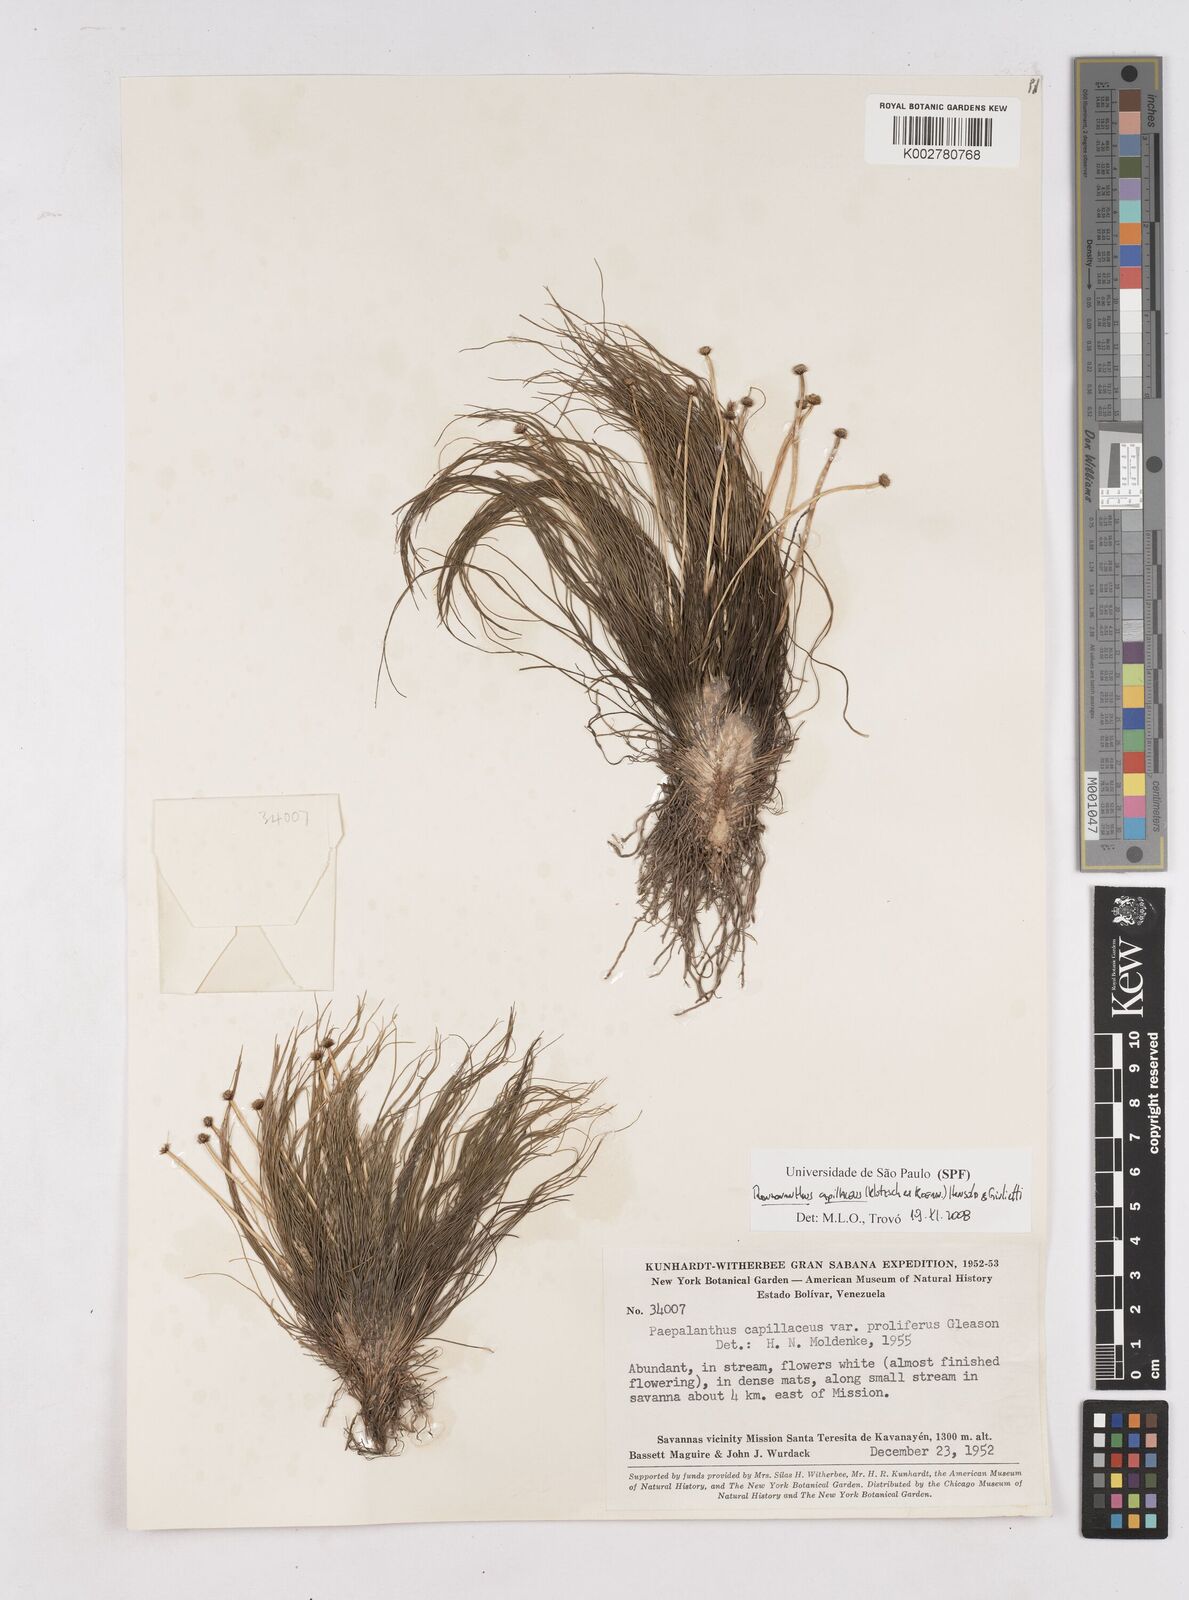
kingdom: Plantae
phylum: Tracheophyta
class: Liliopsida
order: Poales
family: Eriocaulaceae
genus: Rondonanthus
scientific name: Rondonanthus capillaceus
